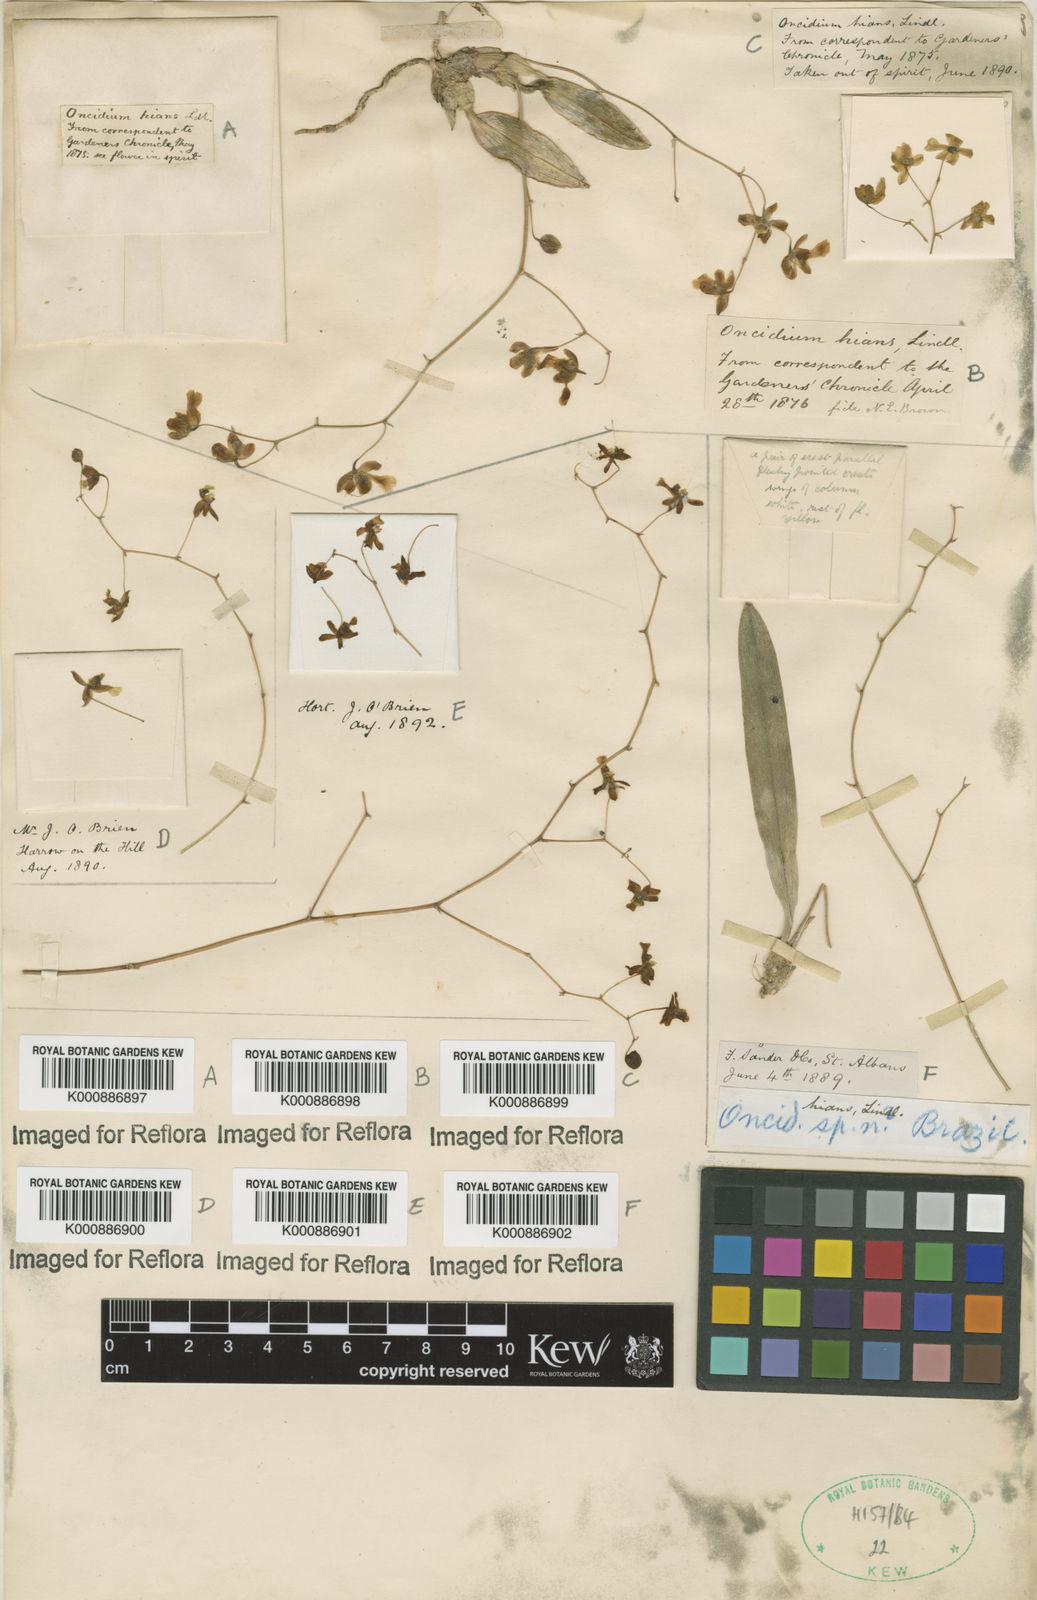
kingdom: Plantae
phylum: Tracheophyta
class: Liliopsida
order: Asparagales
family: Orchidaceae
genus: Grandiphyllum
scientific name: Grandiphyllum hians
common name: Mule-ear orchid
